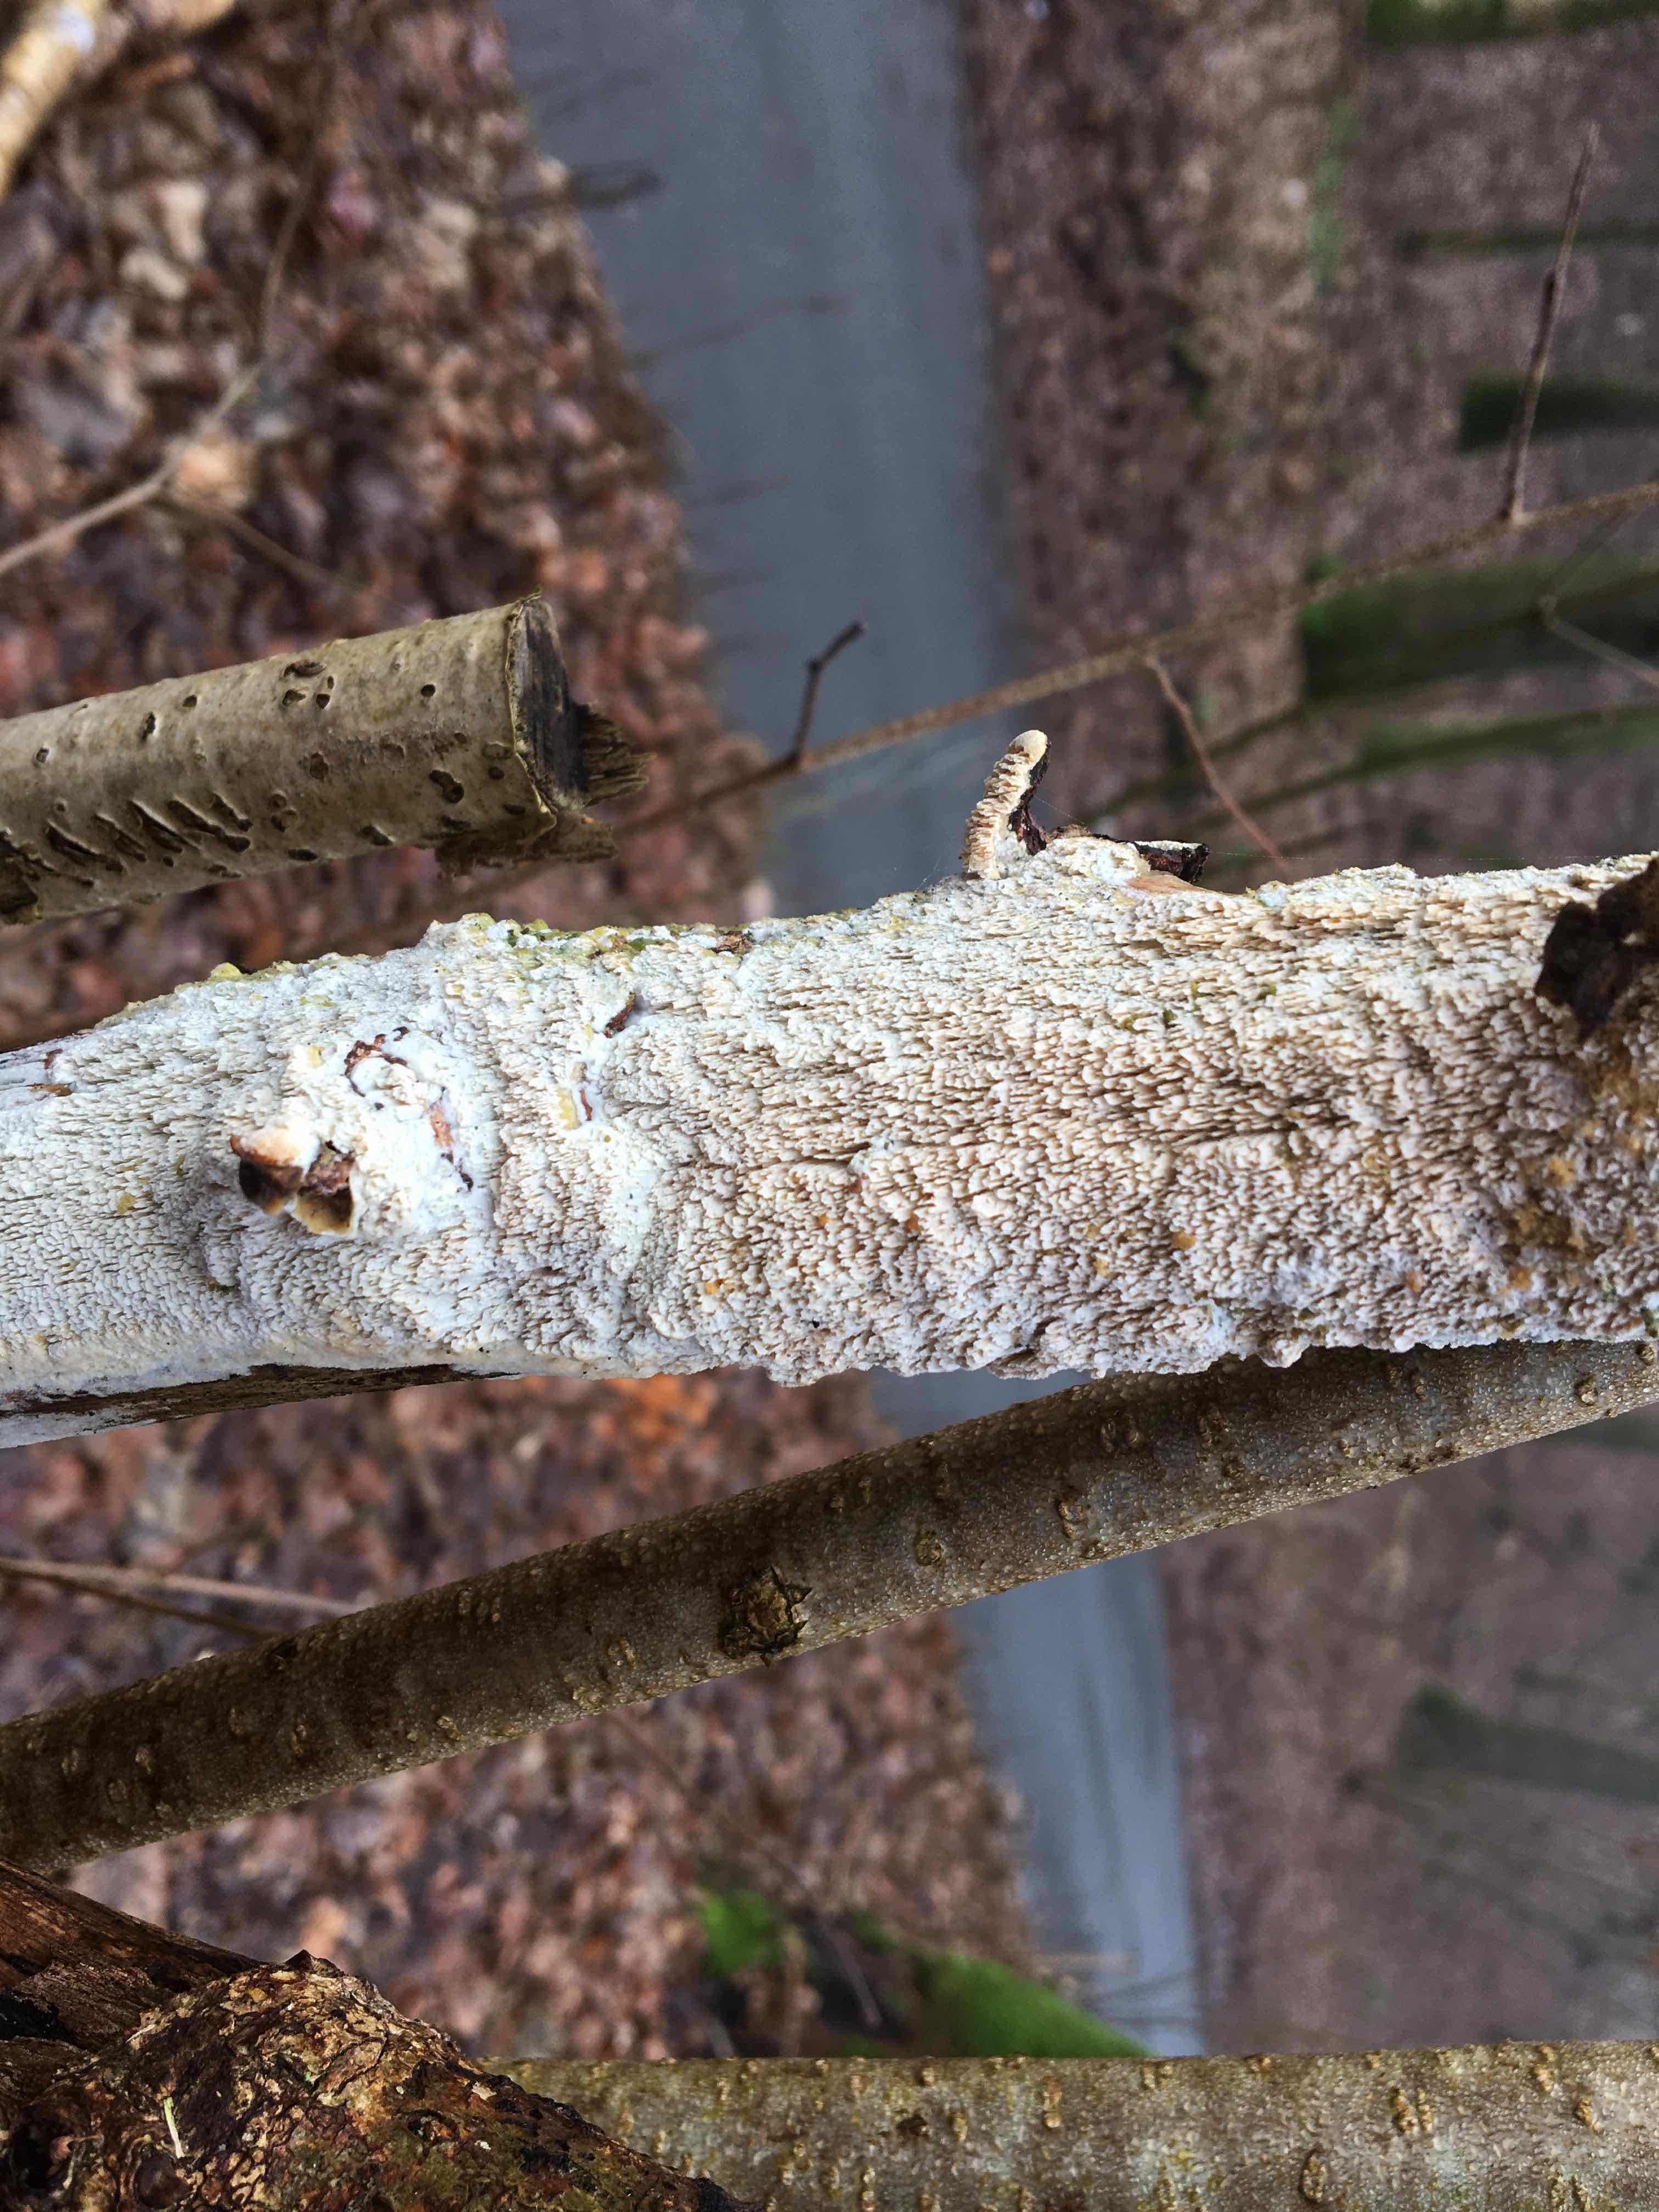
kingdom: Fungi
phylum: Basidiomycota
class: Agaricomycetes
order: Corticiales
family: Corticiaceae
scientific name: Corticiaceae
